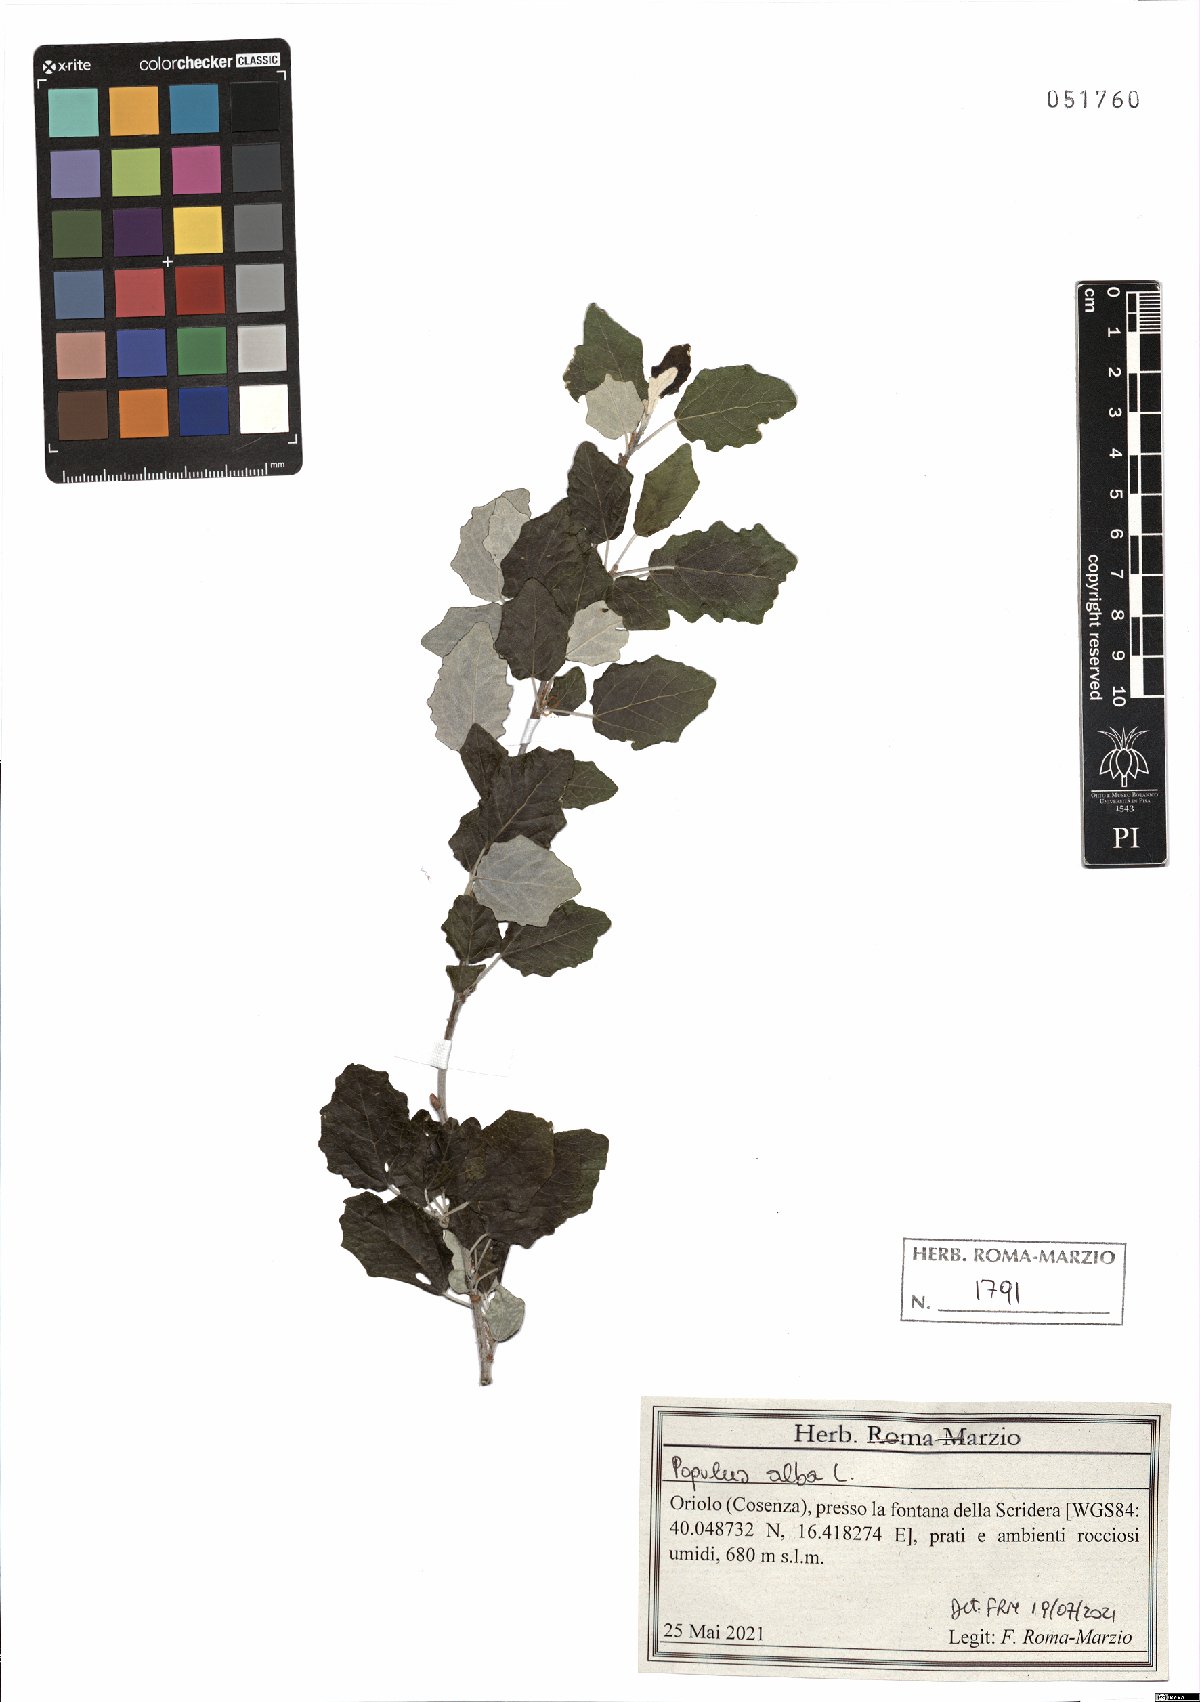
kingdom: Plantae
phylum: Tracheophyta
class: Magnoliopsida
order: Malpighiales
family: Salicaceae
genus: Populus
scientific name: Populus alba
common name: White poplar
